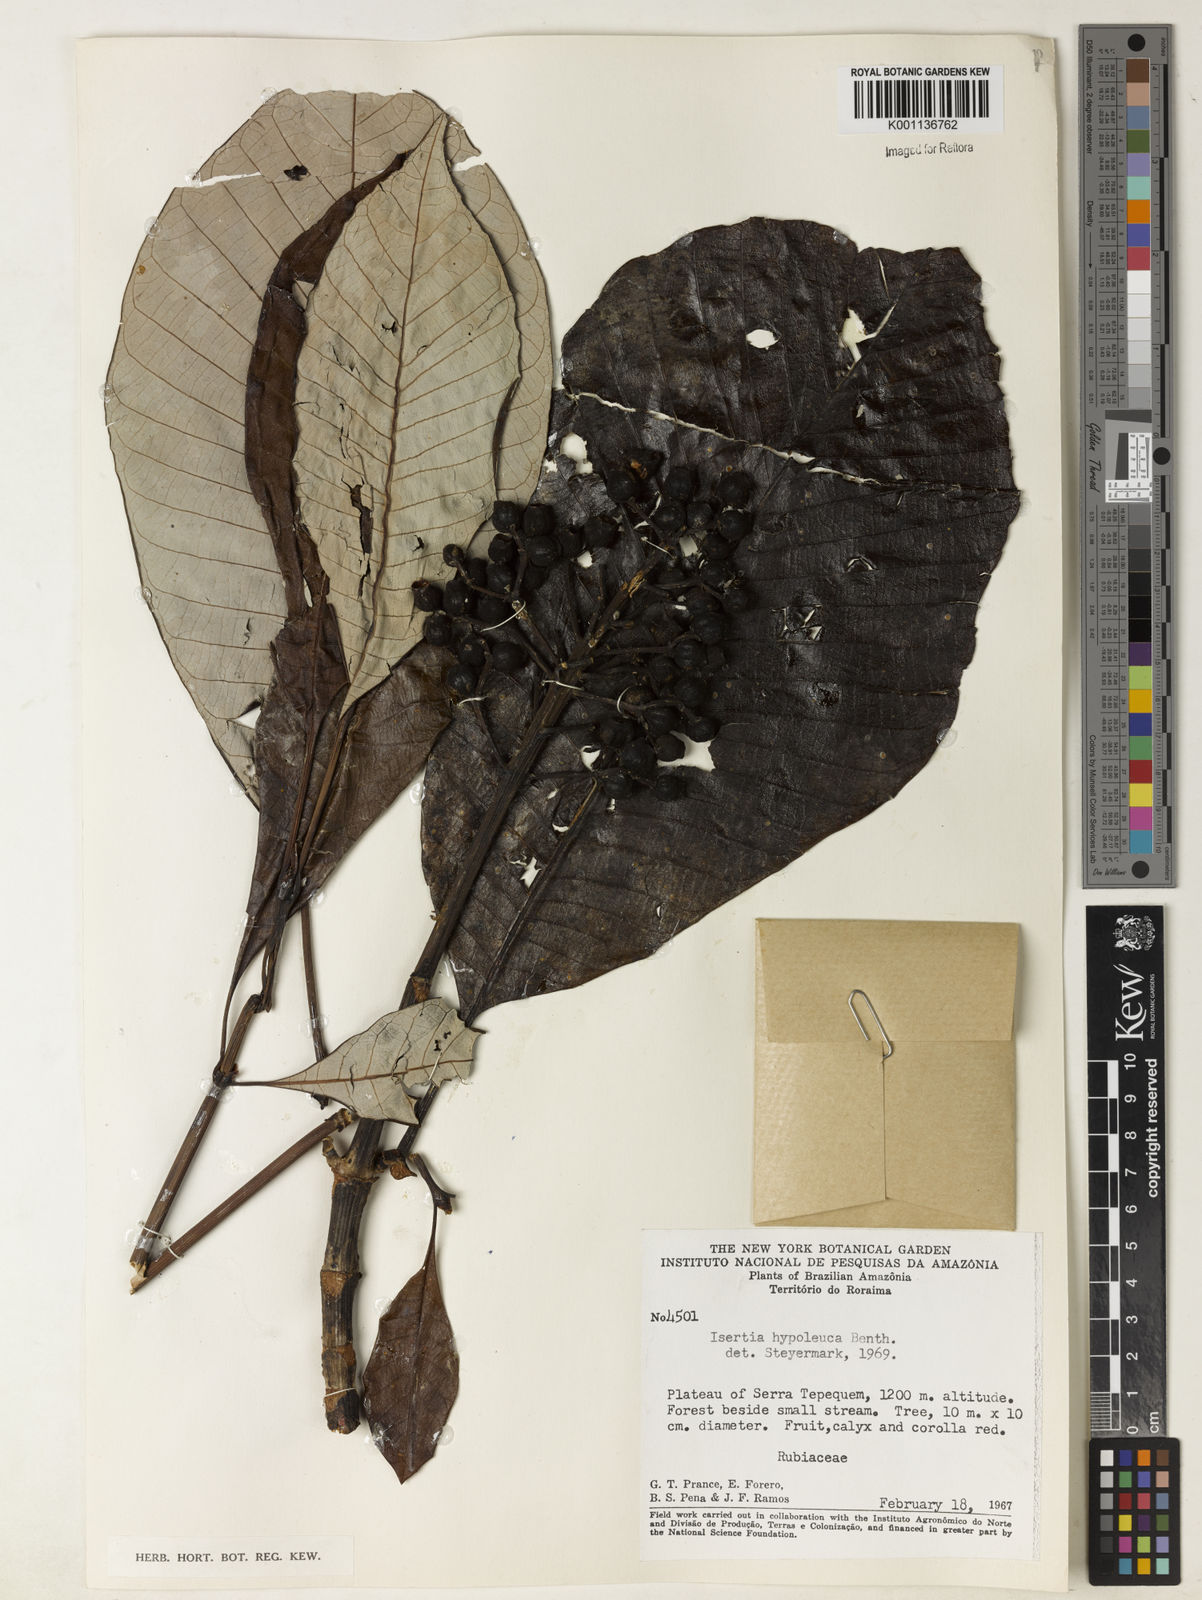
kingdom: Plantae
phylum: Tracheophyta
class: Magnoliopsida
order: Gentianales
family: Rubiaceae
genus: Isertia
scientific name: Isertia hypoleuca
